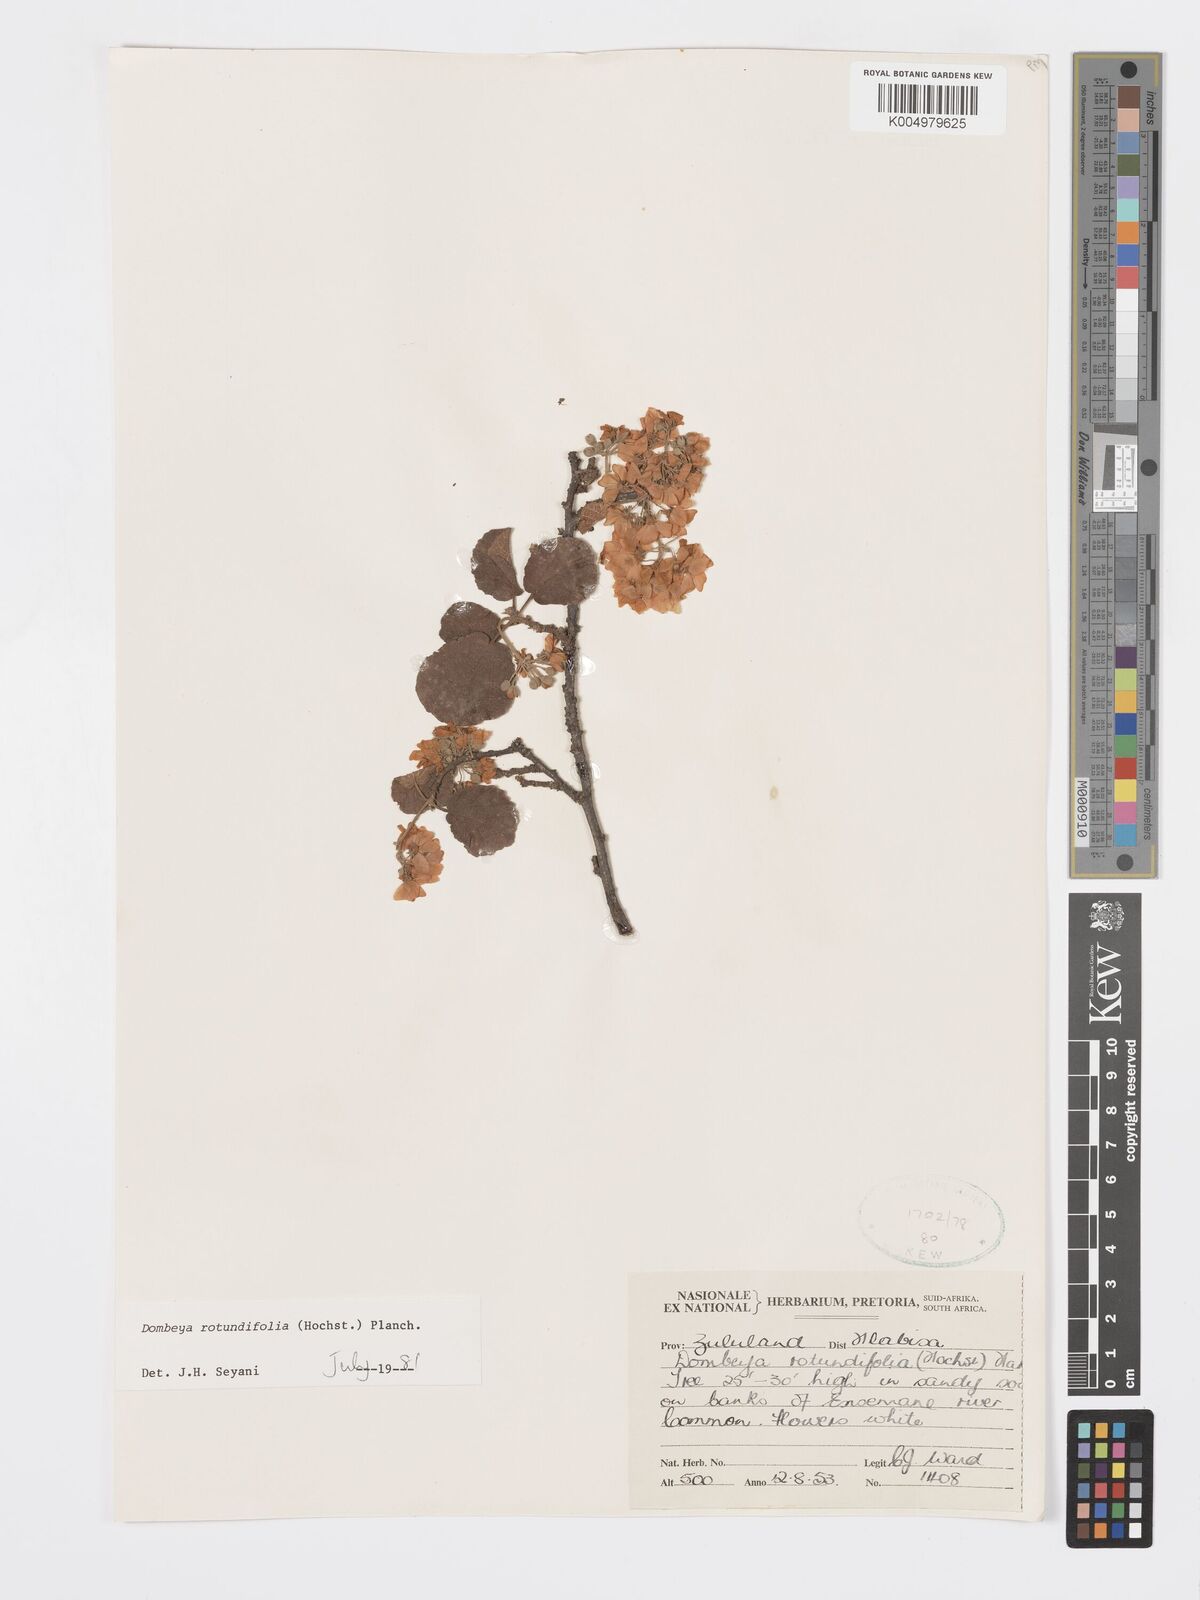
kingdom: Plantae
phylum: Tracheophyta
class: Magnoliopsida
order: Malvales
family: Malvaceae
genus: Dombeya
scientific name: Dombeya rotundifolia
